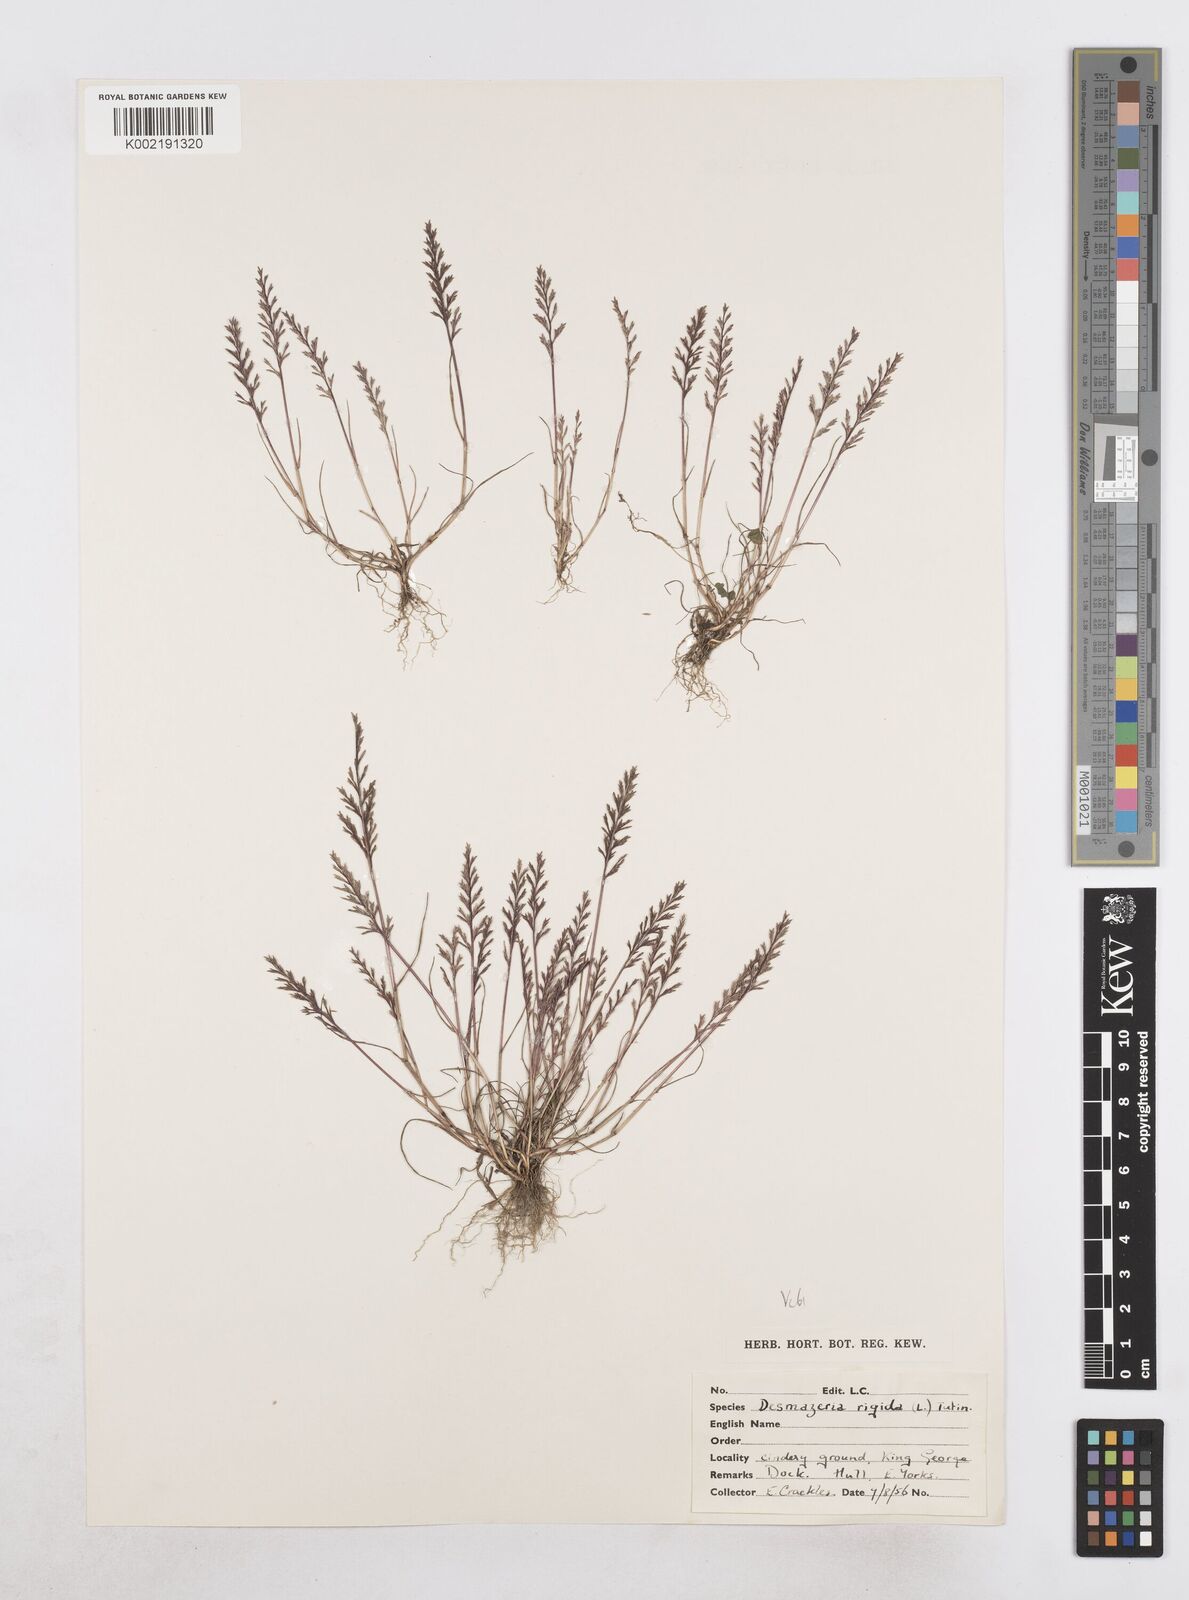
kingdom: Plantae
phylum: Tracheophyta
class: Liliopsida
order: Poales
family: Poaceae
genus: Catapodium
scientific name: Catapodium rigidum
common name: Fern-grass
